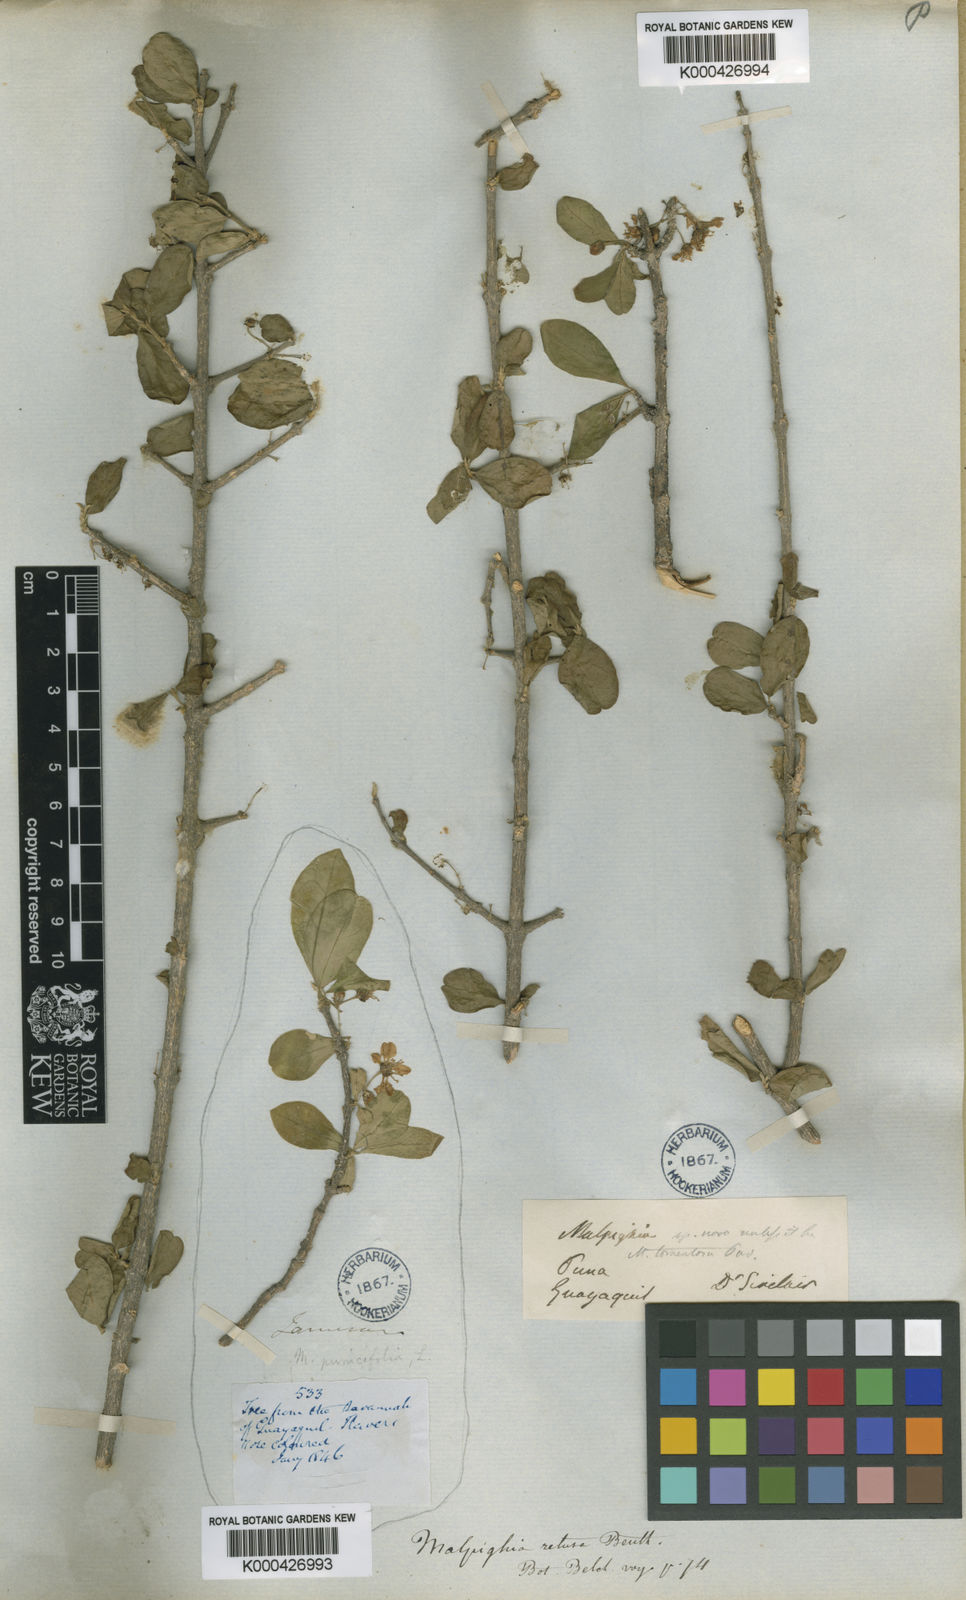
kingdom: Plantae
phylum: Tracheophyta
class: Magnoliopsida
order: Malpighiales
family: Malpighiaceae
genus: Malpighia
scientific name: Malpighia emarginata
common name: Barbados cherry
